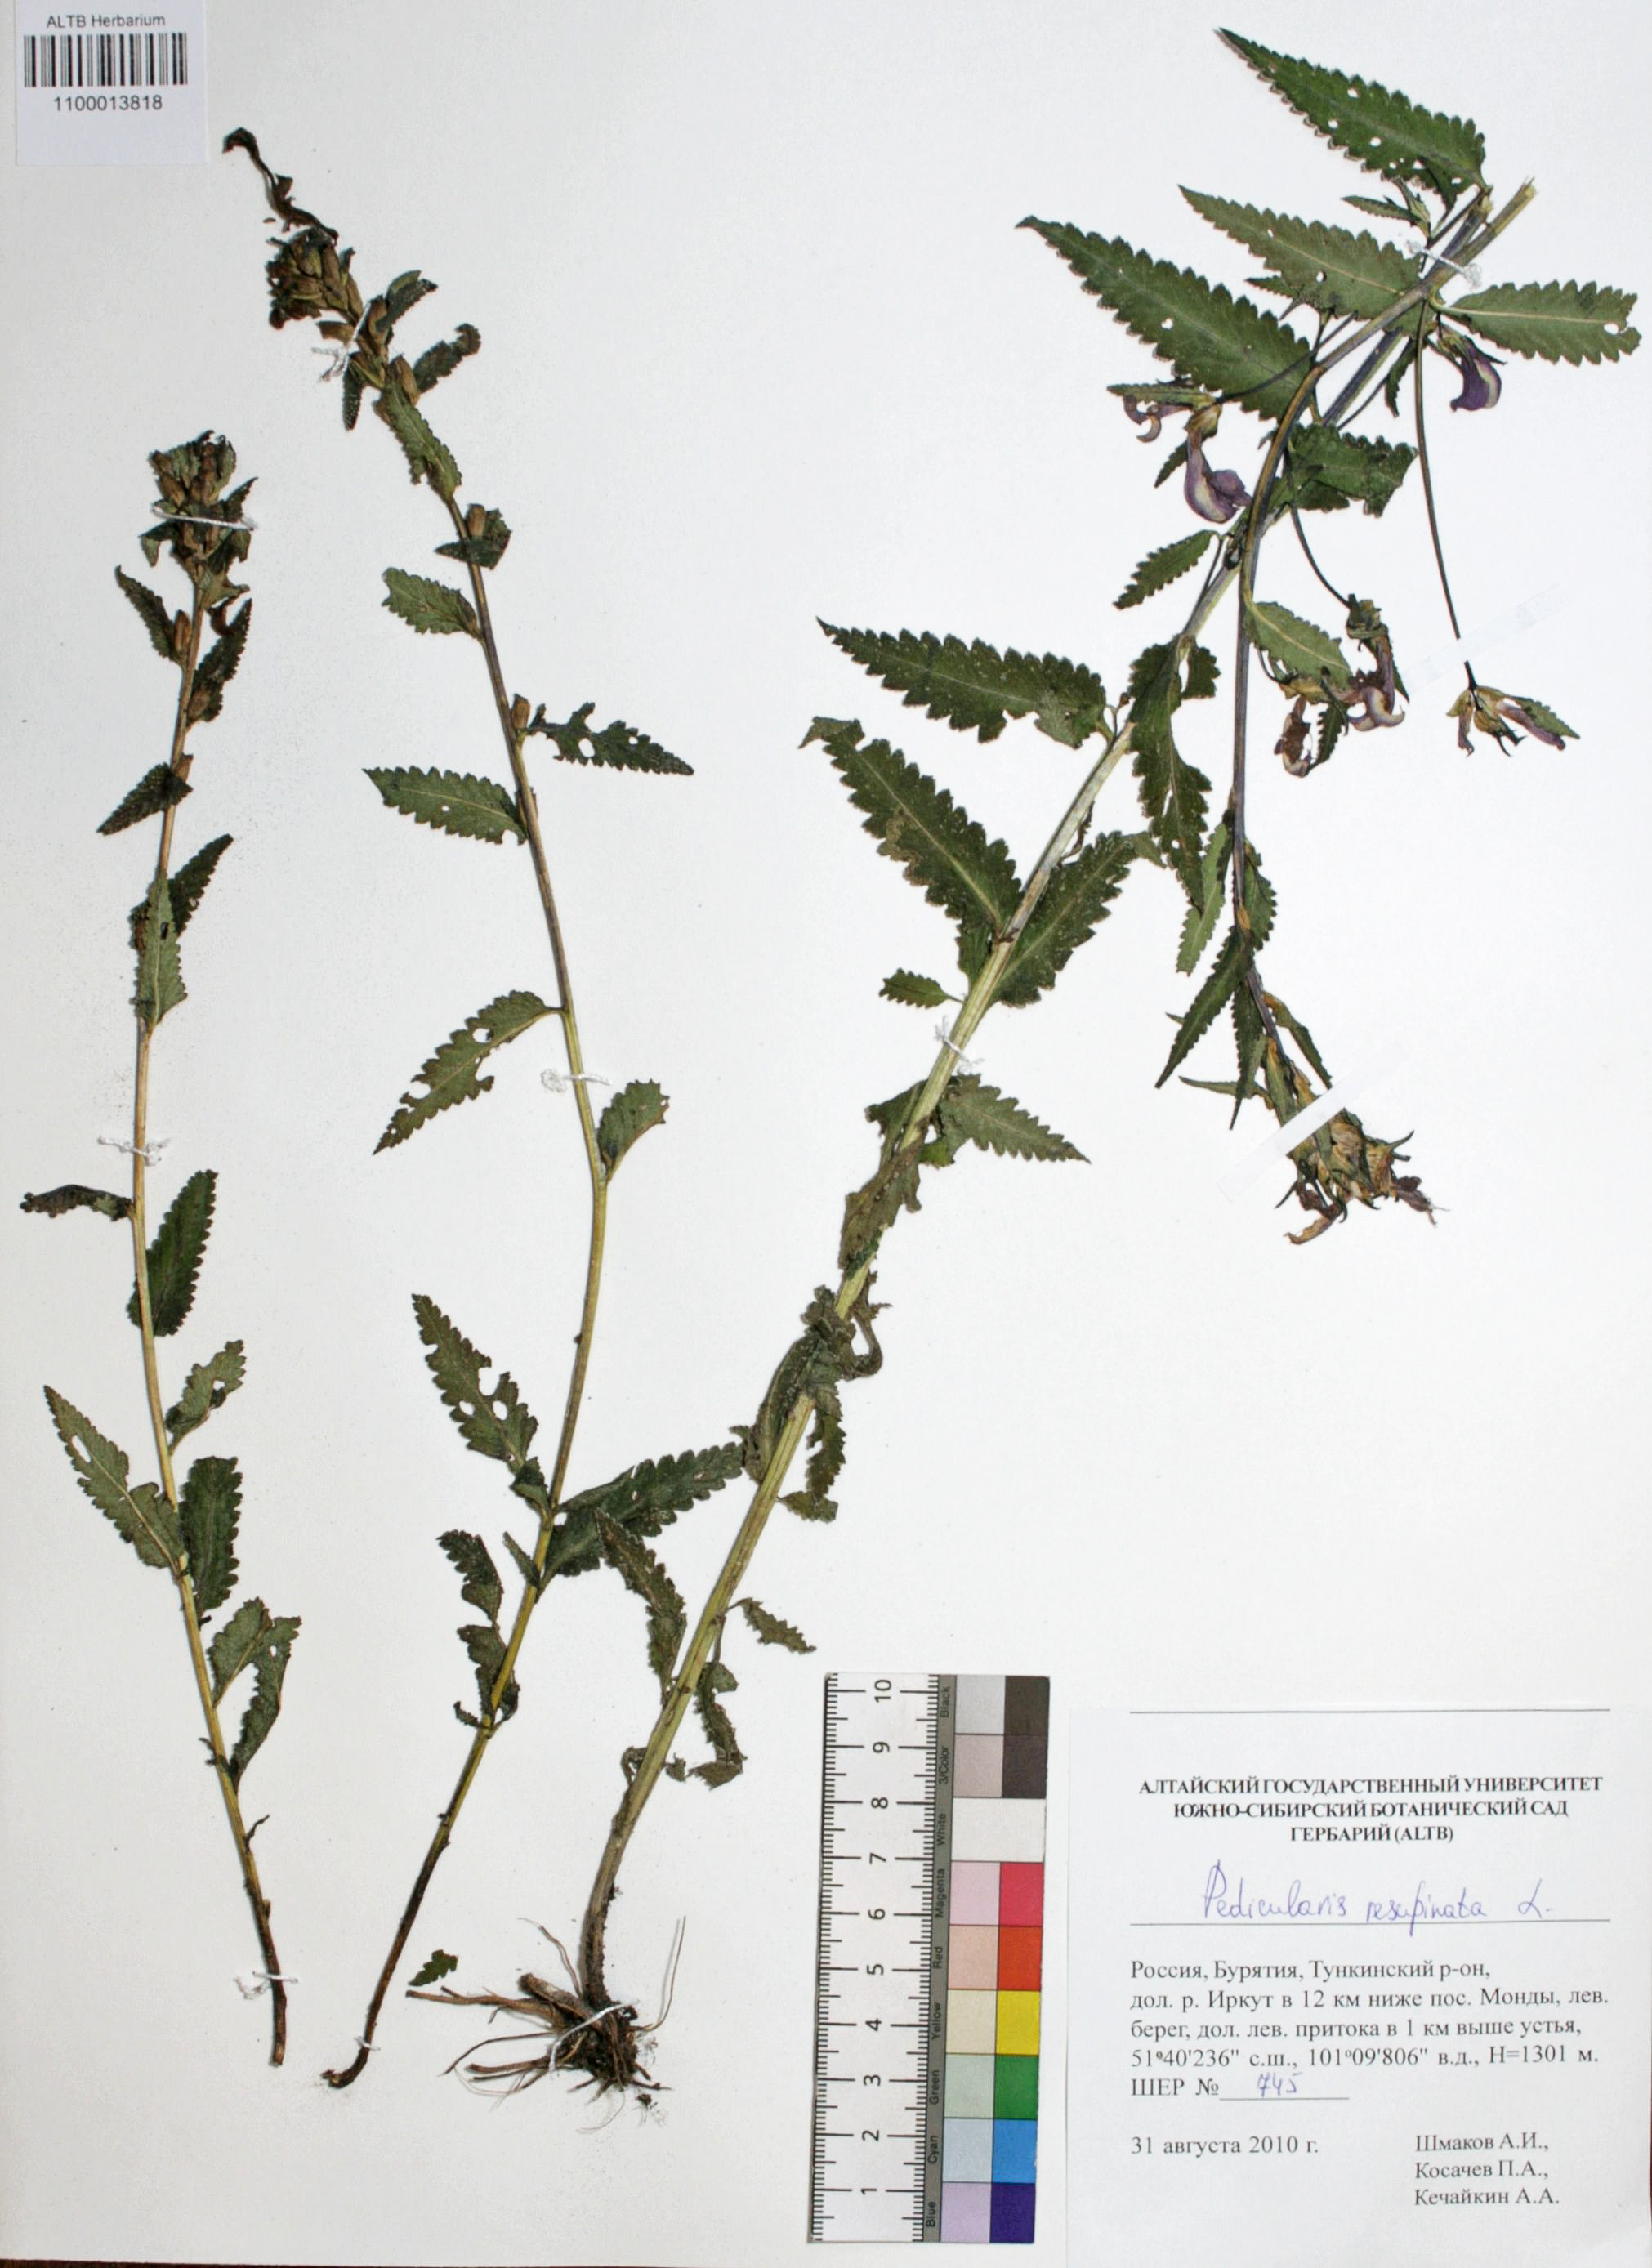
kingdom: Plantae
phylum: Tracheophyta
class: Magnoliopsida
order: Lamiales
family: Orobanchaceae
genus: Pedicularis
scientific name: Pedicularis resupinata
